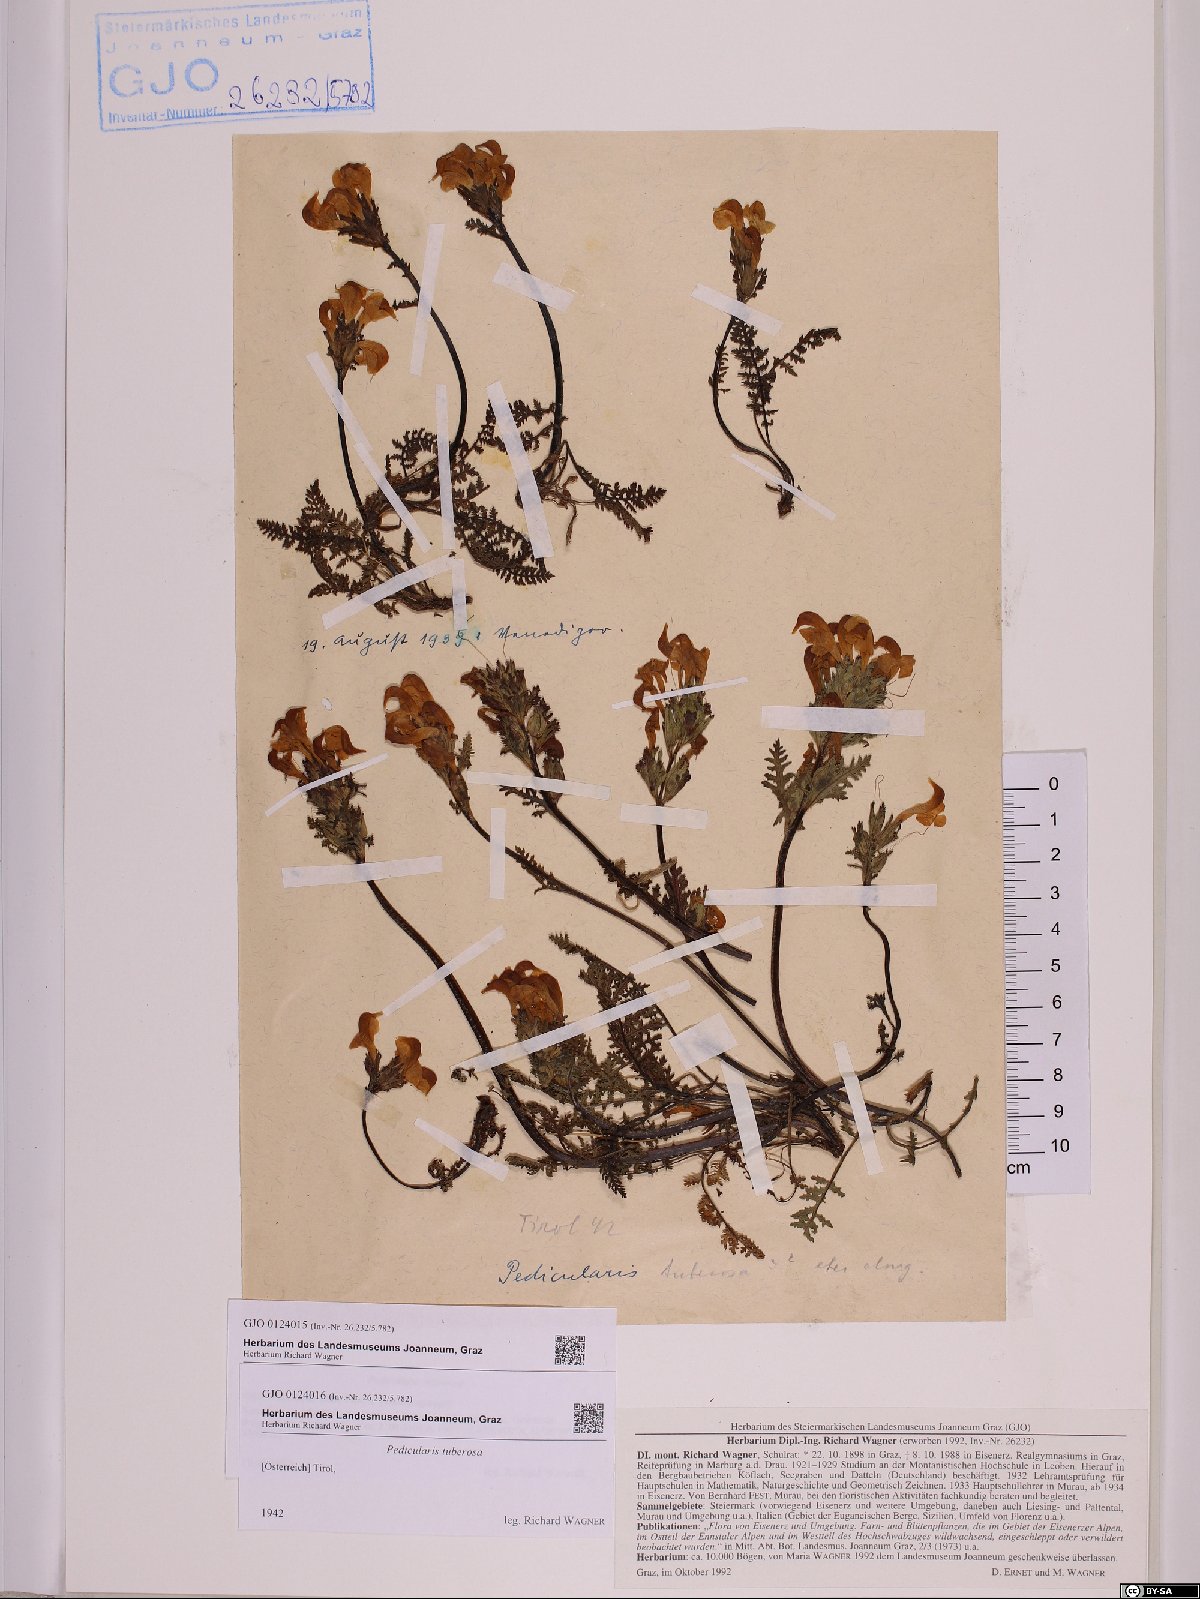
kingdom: Plantae
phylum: Tracheophyta
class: Magnoliopsida
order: Lamiales
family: Orobanchaceae
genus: Pedicularis
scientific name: Pedicularis tuberosa
